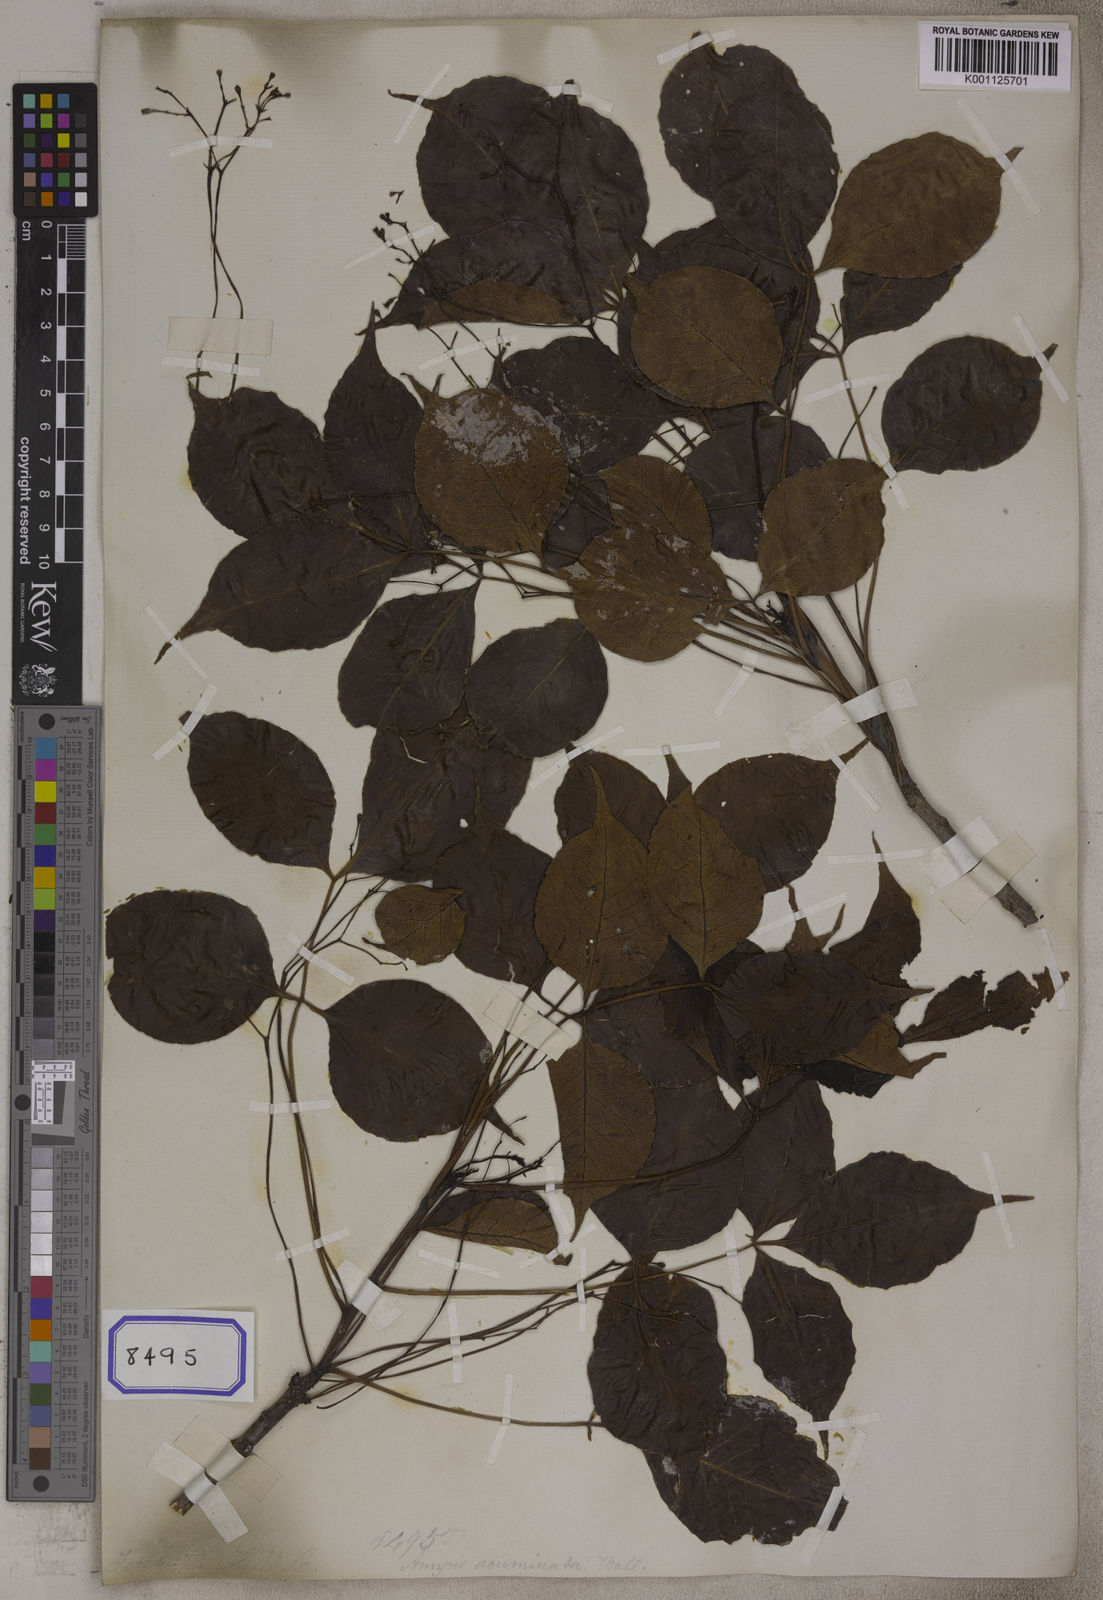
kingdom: Plantae
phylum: Tracheophyta
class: Magnoliopsida
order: Sapindales
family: Burseraceae
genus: Protium
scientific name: Protium
